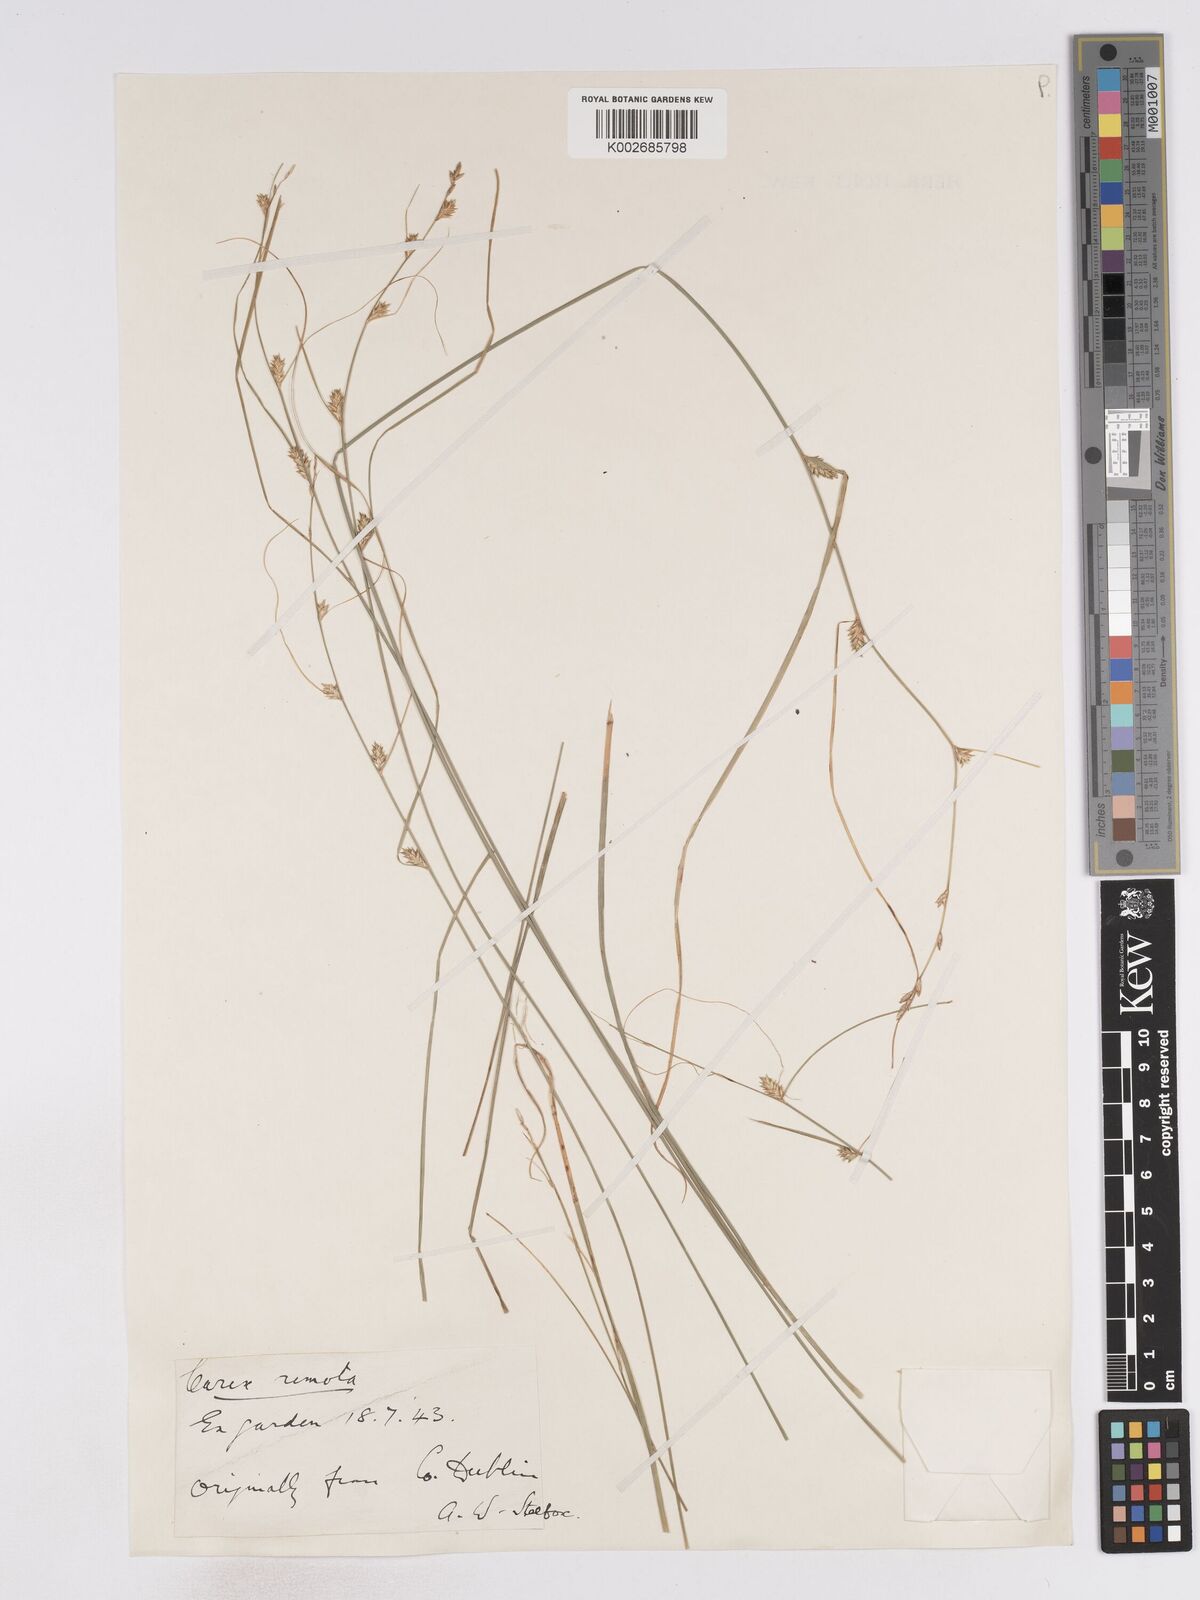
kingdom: Plantae
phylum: Tracheophyta
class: Liliopsida
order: Poales
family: Cyperaceae
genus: Carex
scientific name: Carex remota
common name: Remote sedge
